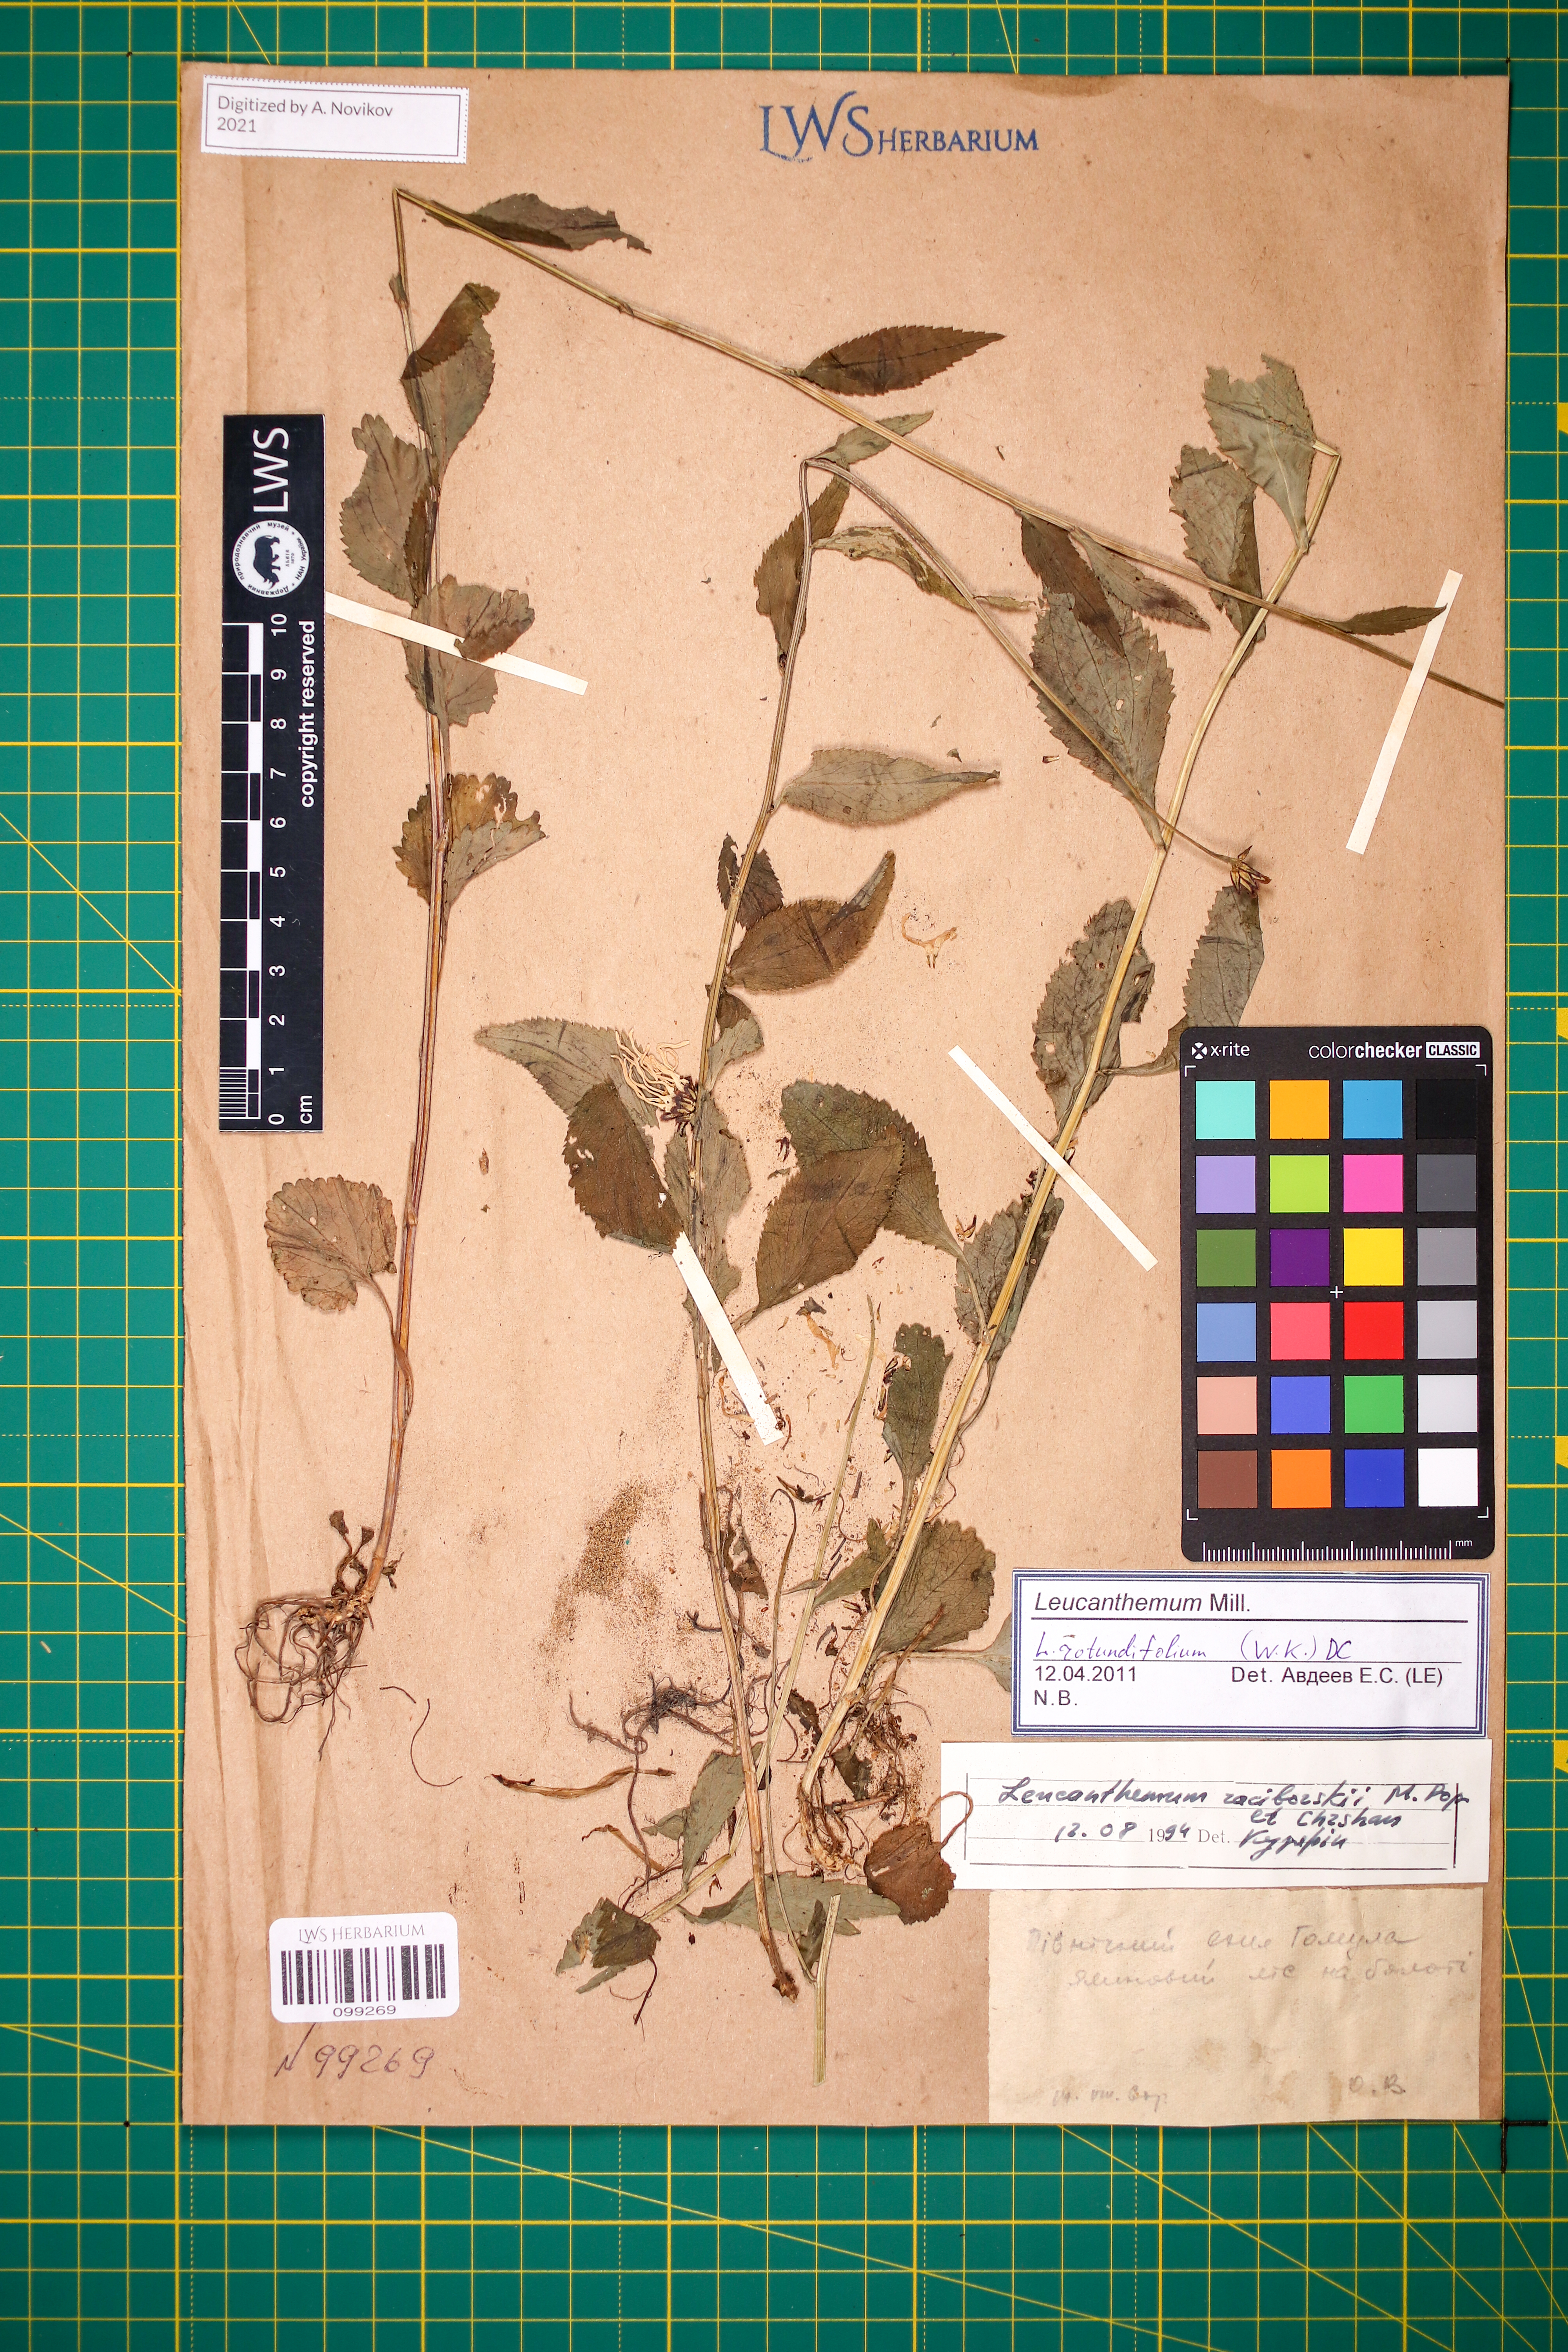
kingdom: Plantae
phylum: Tracheophyta
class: Magnoliopsida
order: Asterales
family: Asteraceae
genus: Leucanthemum
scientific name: Leucanthemum rotundifolium
